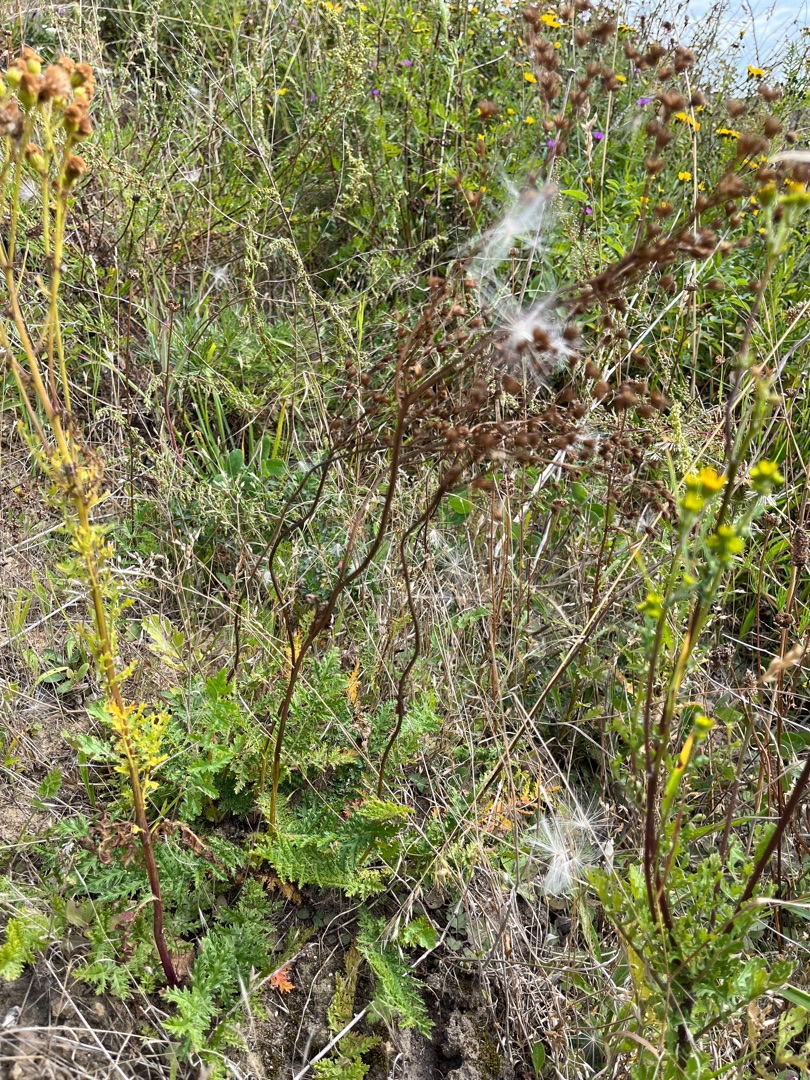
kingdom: Plantae
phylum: Tracheophyta
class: Magnoliopsida
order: Rosales
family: Rosaceae
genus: Filipendula
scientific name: Filipendula vulgaris
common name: Knoldet mjødurt
